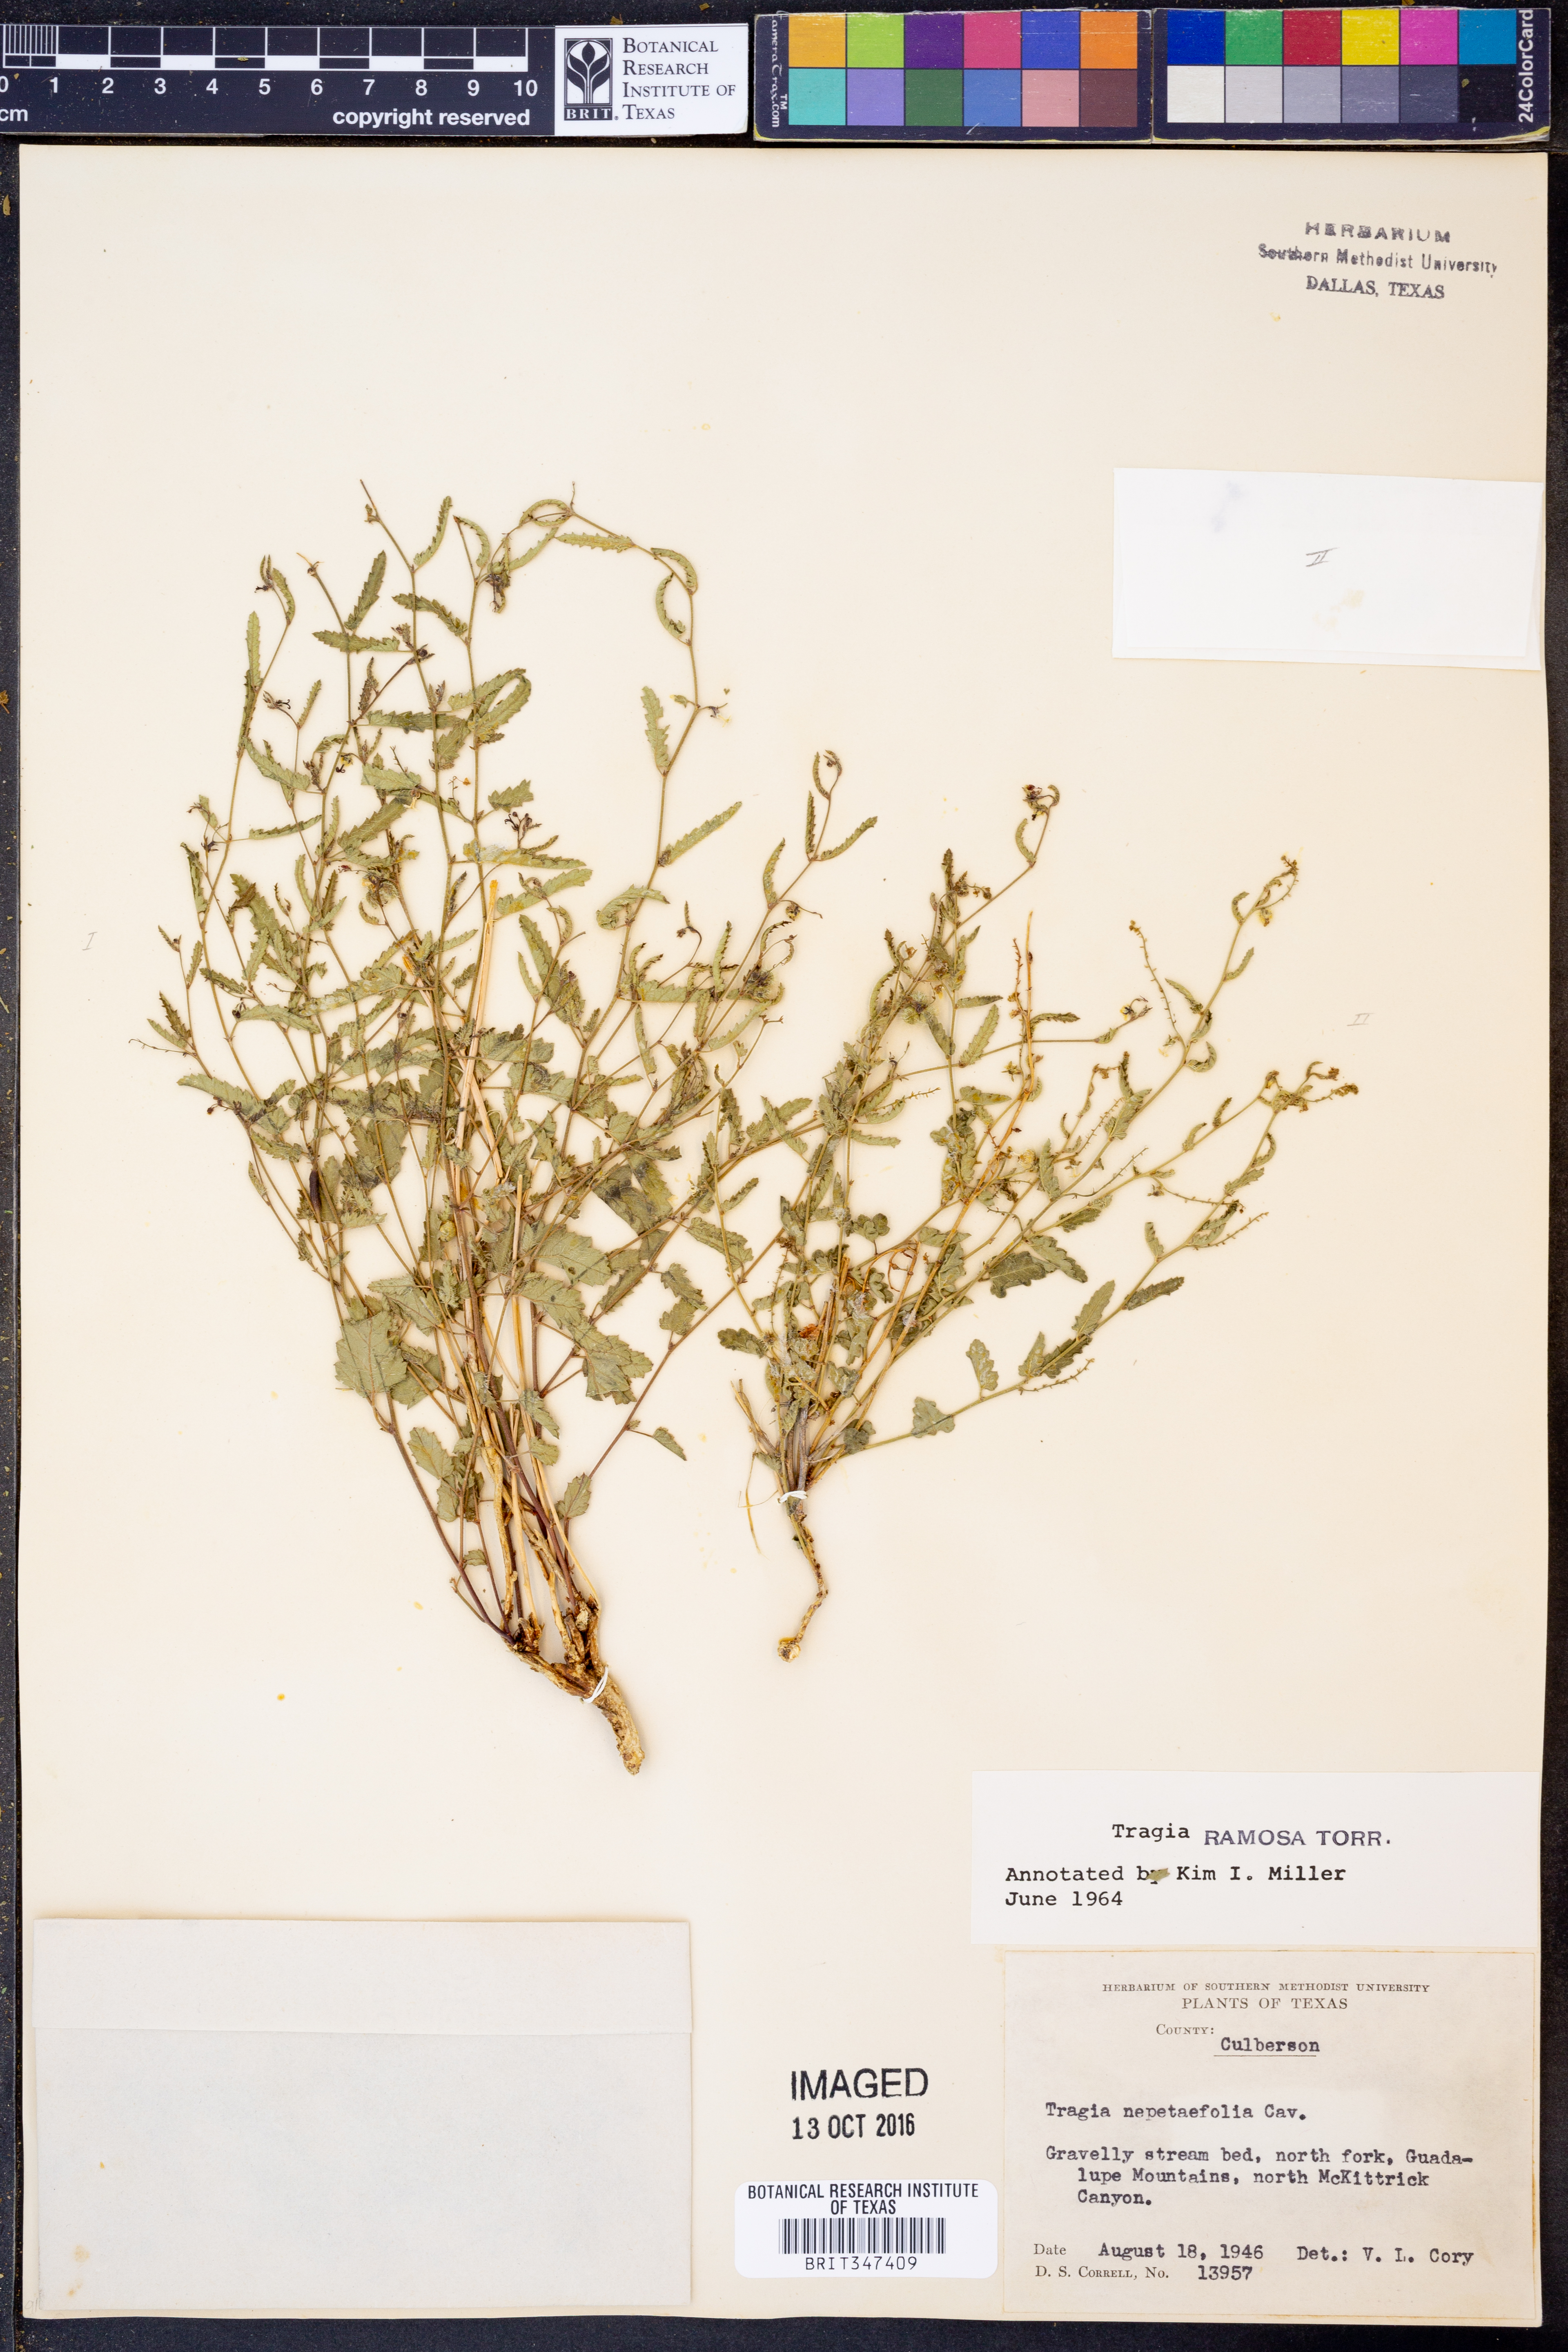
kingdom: Plantae
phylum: Tracheophyta
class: Magnoliopsida
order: Malpighiales
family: Euphorbiaceae
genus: Tragia
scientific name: Tragia ramosa
